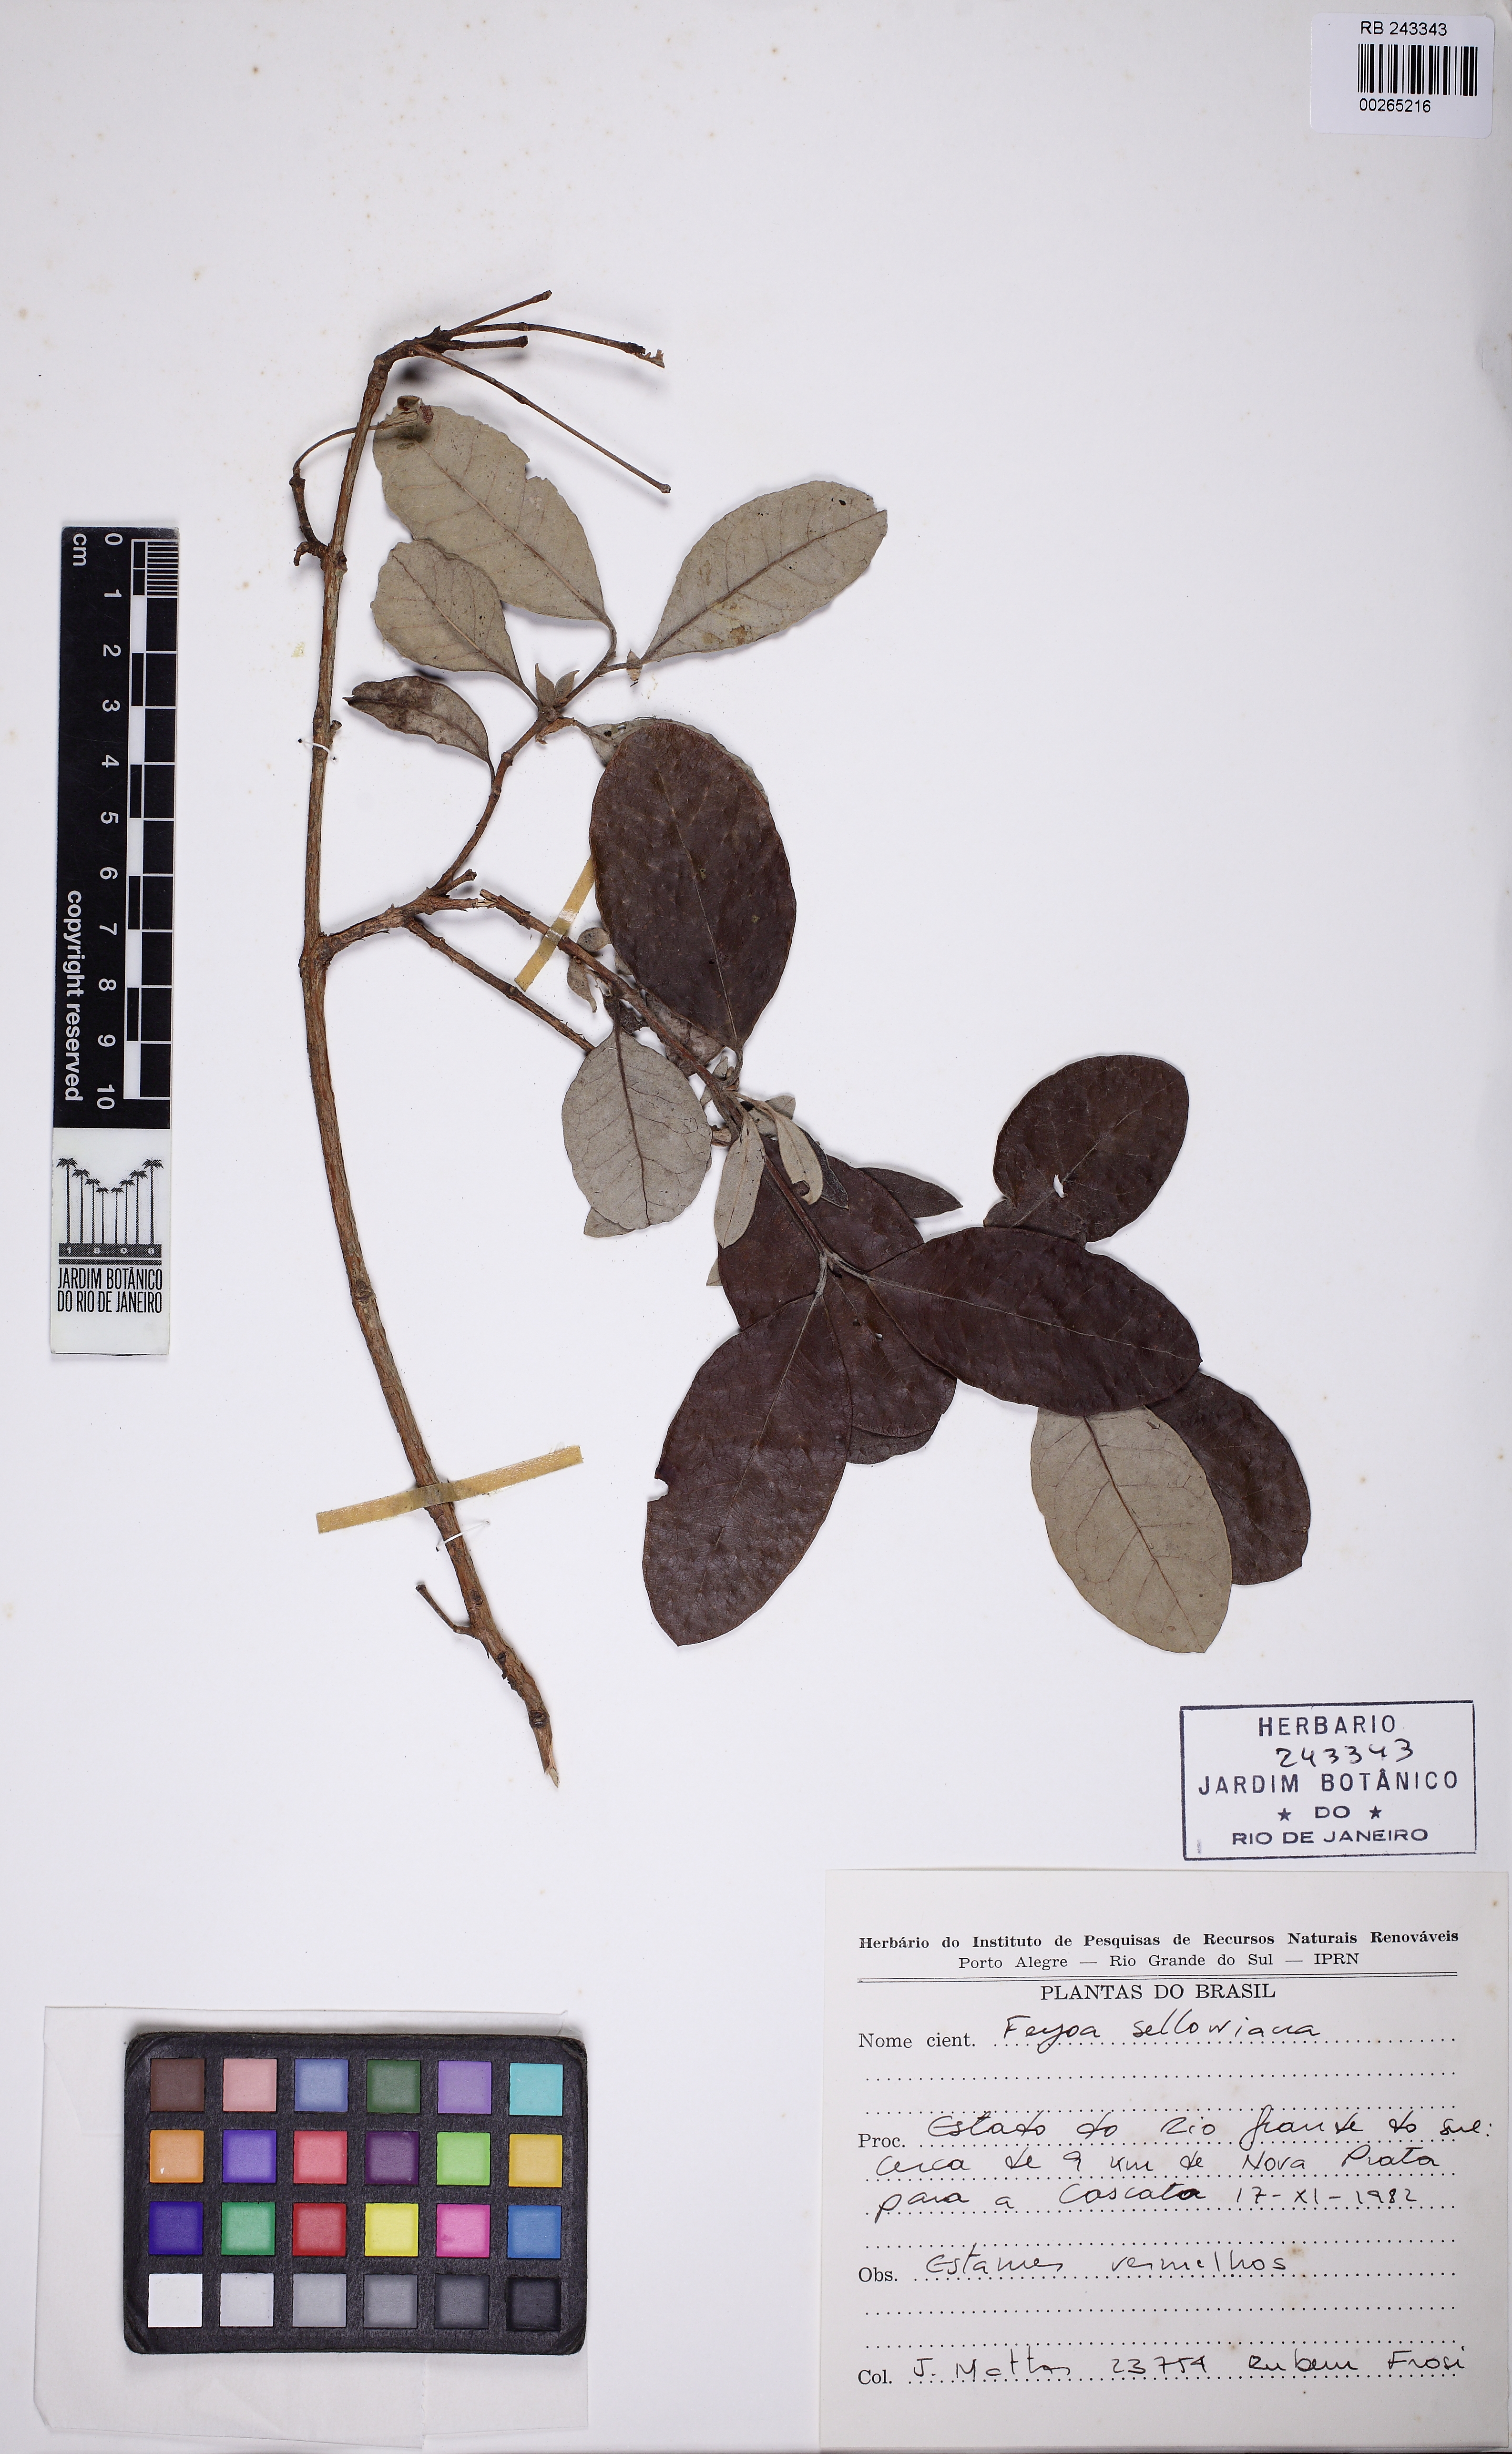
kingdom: Plantae
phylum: Tracheophyta
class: Magnoliopsida
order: Myrtales
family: Myrtaceae
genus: Feijoa
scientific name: Feijoa sellowiana
